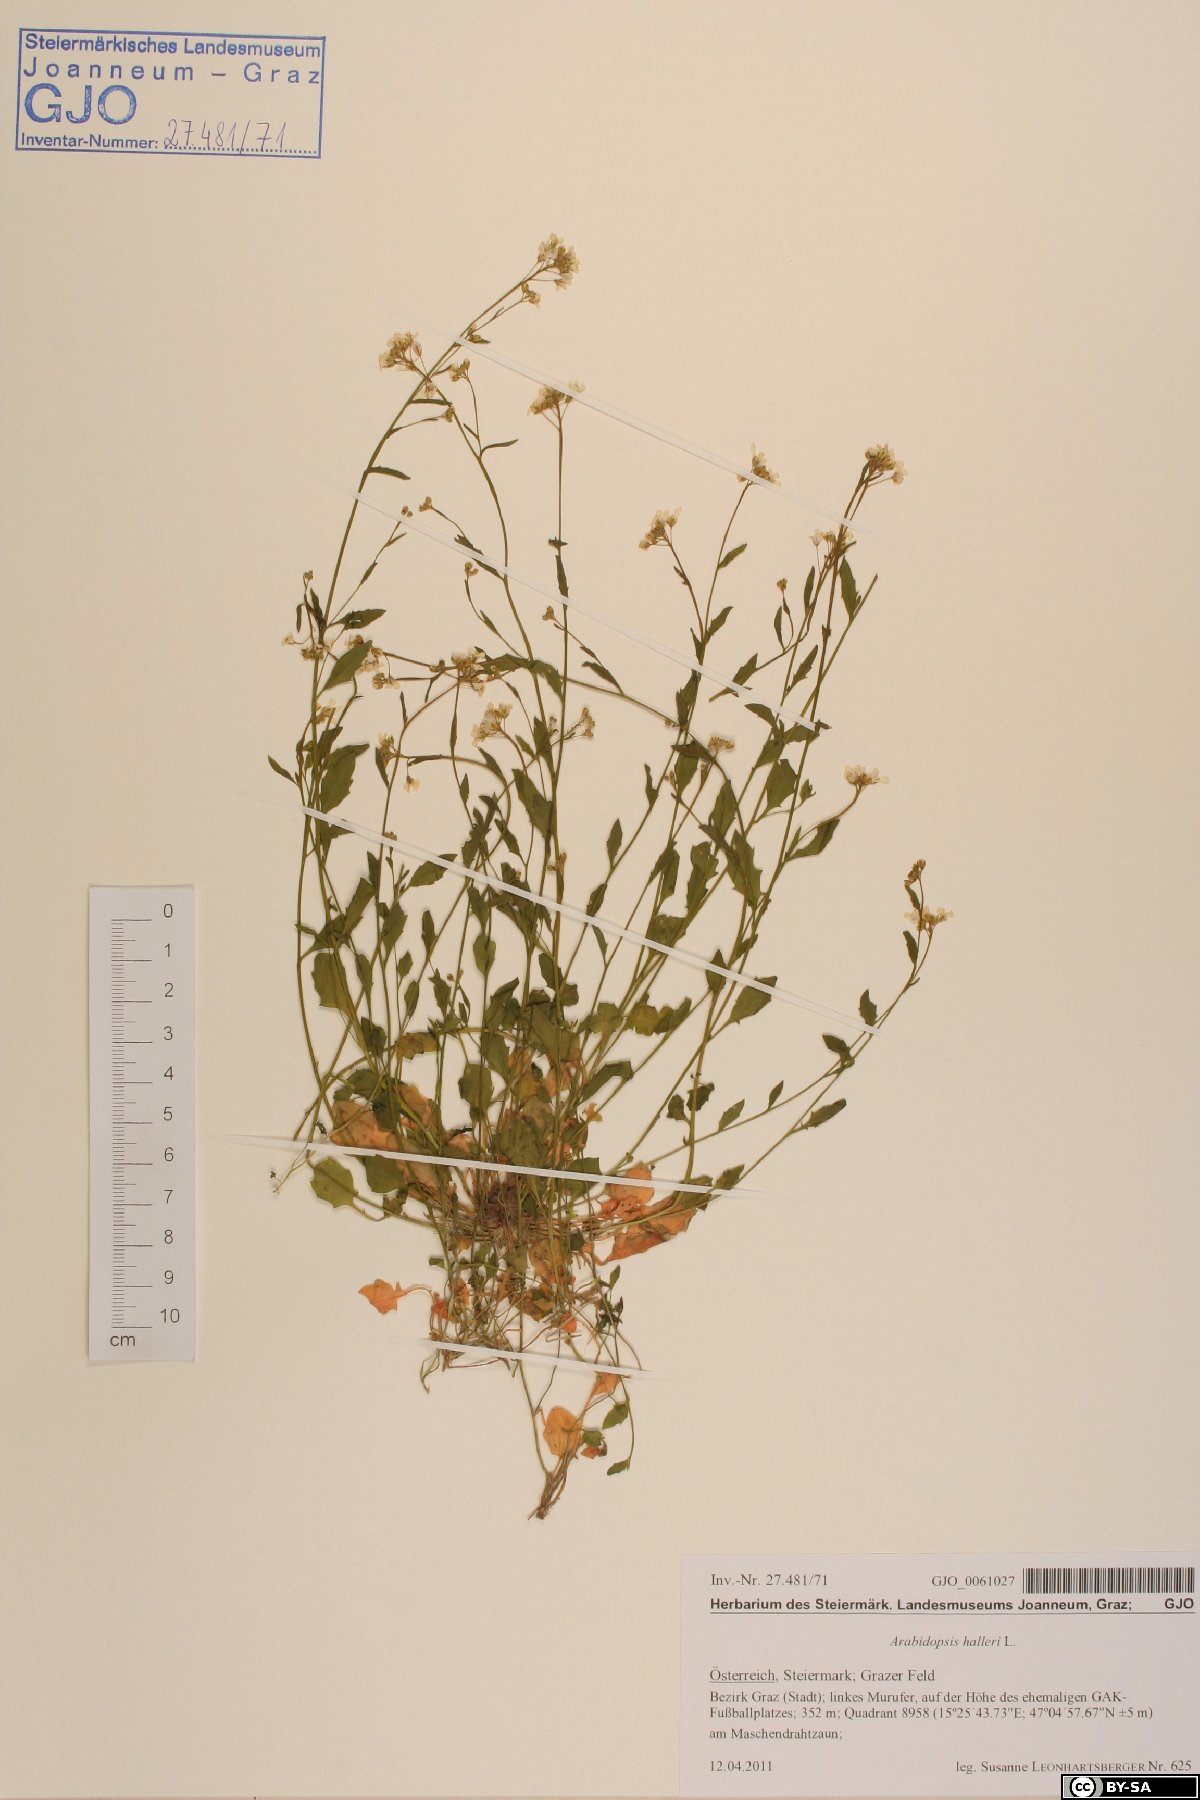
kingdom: Plantae
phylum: Tracheophyta
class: Magnoliopsida
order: Brassicales
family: Brassicaceae
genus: Arabidopsis
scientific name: Arabidopsis halleri
